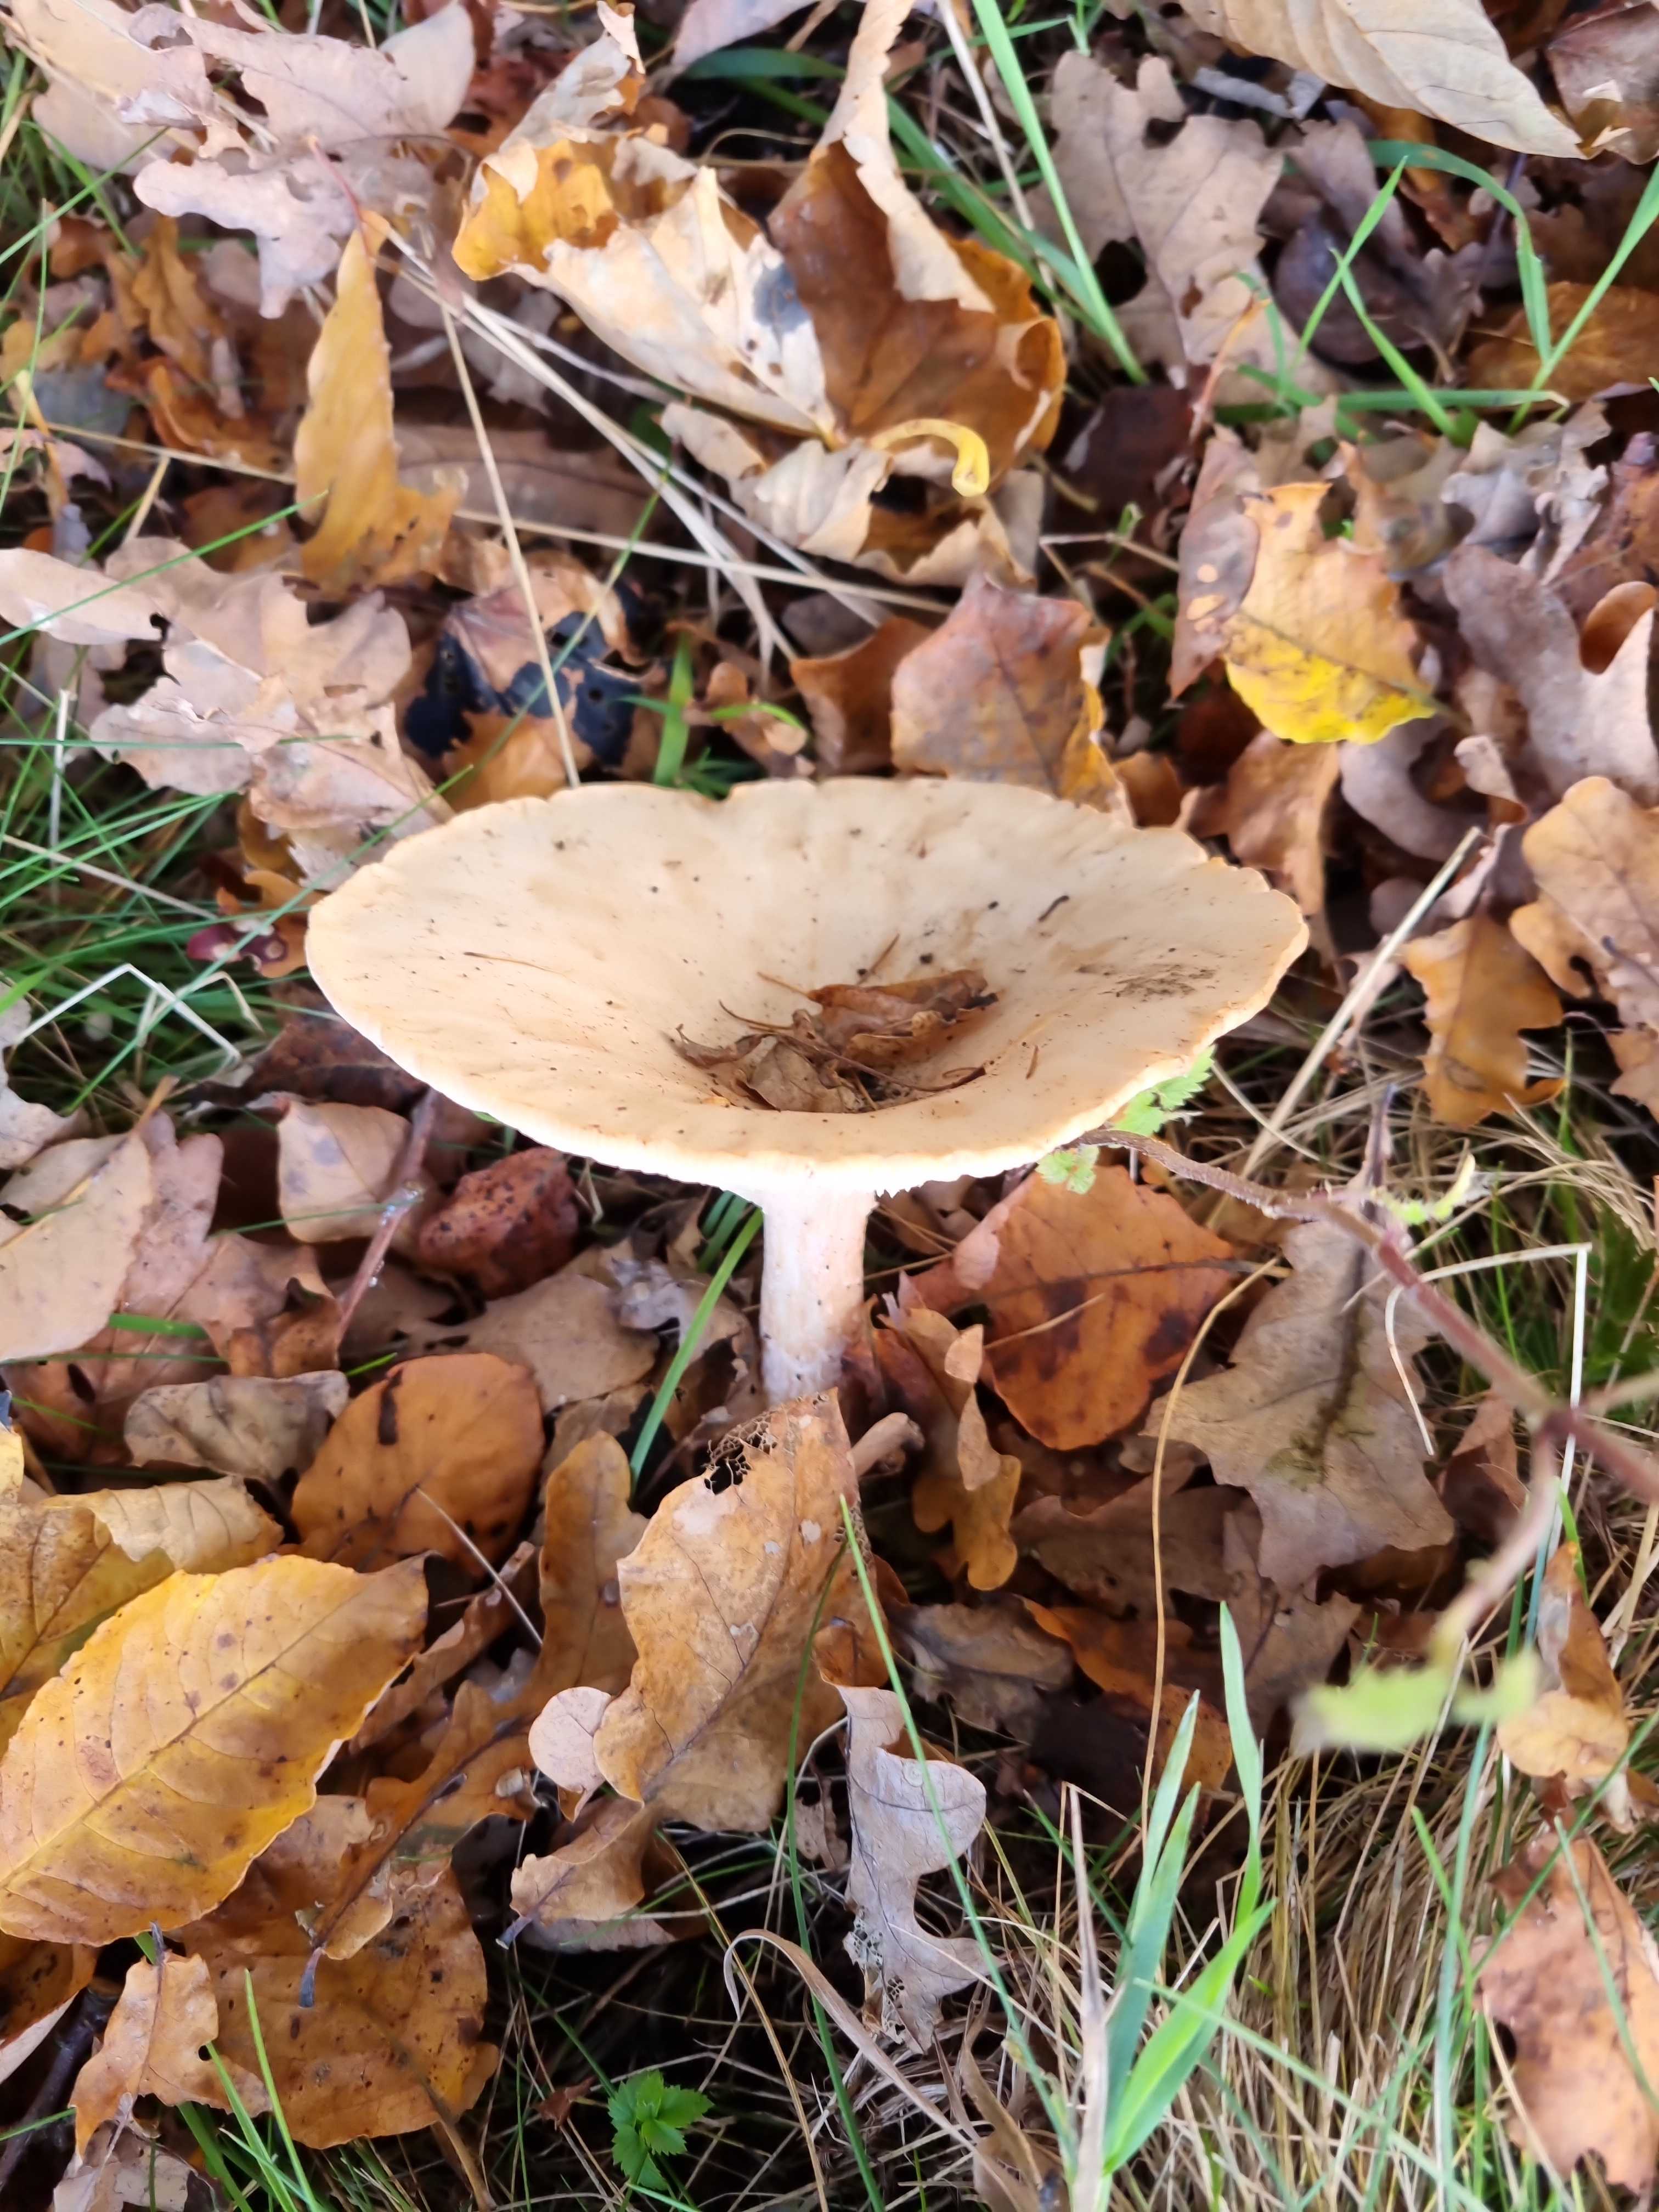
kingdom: Fungi
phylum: Basidiomycota
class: Agaricomycetes
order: Agaricales
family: Tricholomataceae
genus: Infundibulicybe
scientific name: Infundibulicybe geotropa
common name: stor tragthat
